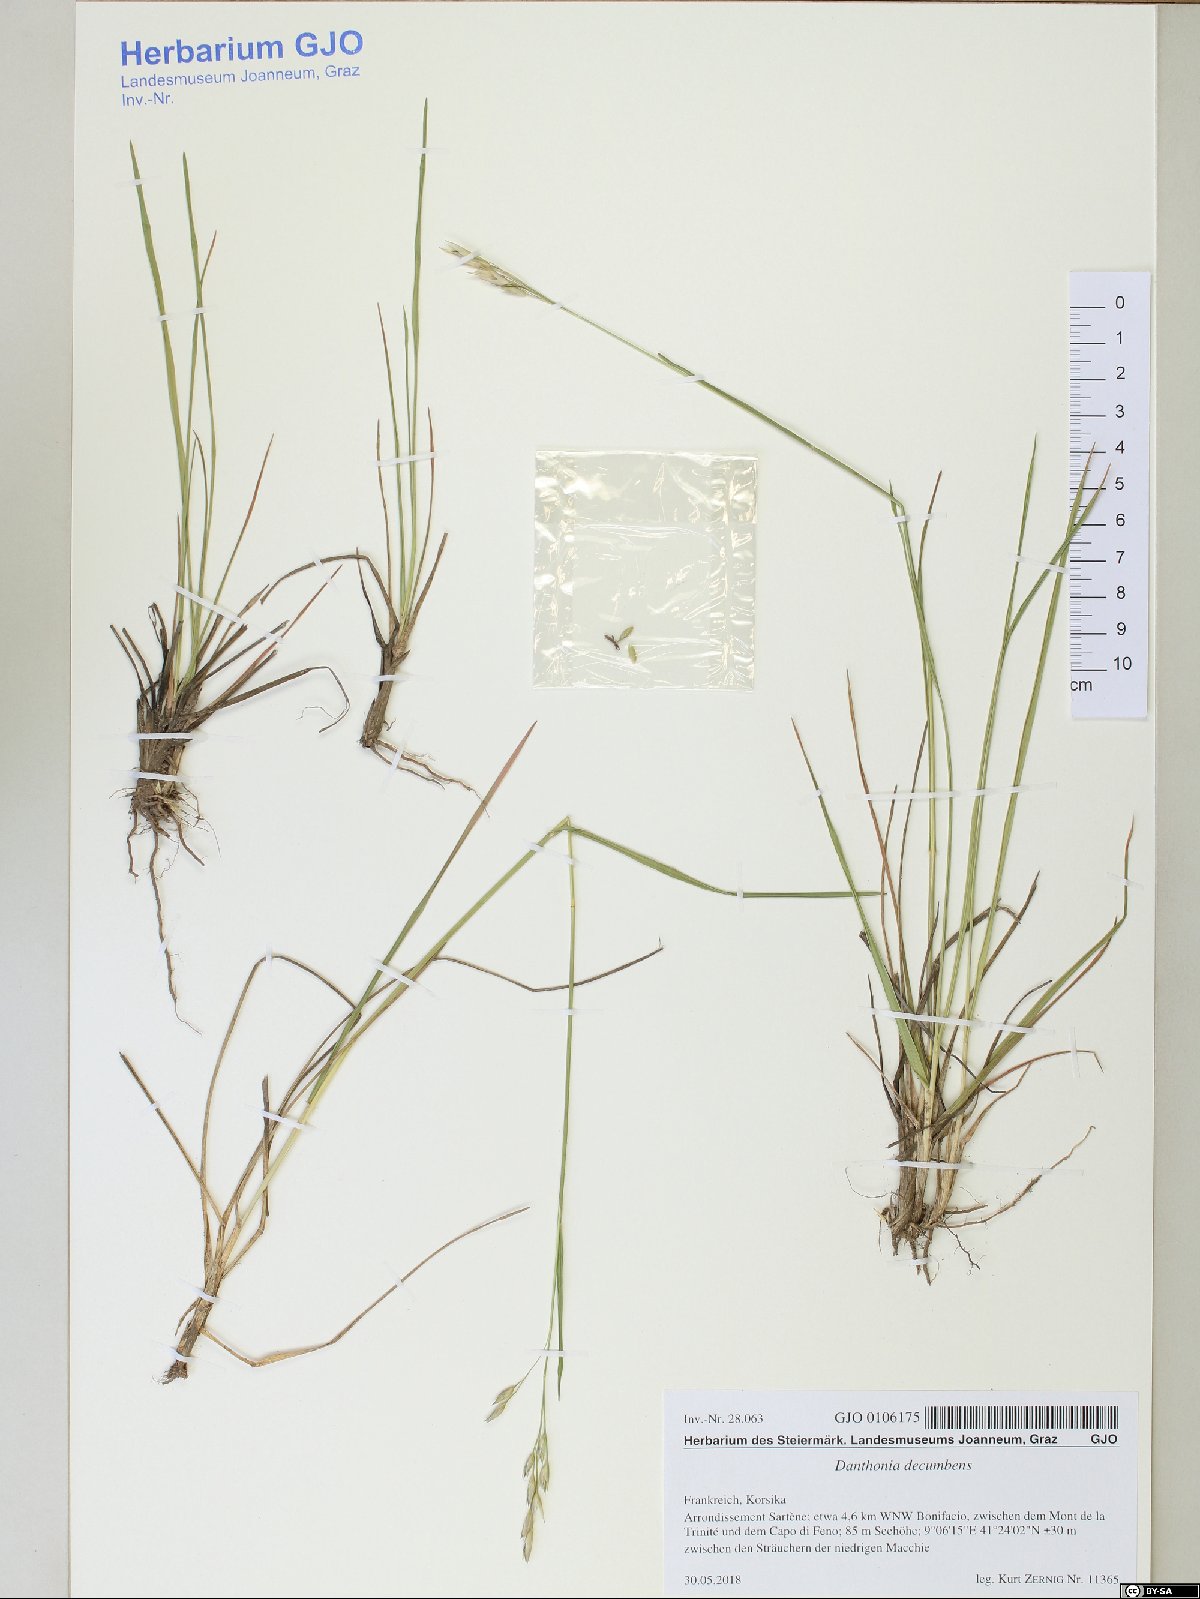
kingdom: Plantae
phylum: Tracheophyta
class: Liliopsida
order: Poales
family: Poaceae
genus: Danthonia
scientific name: Danthonia decumbens
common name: Common heathgrass
